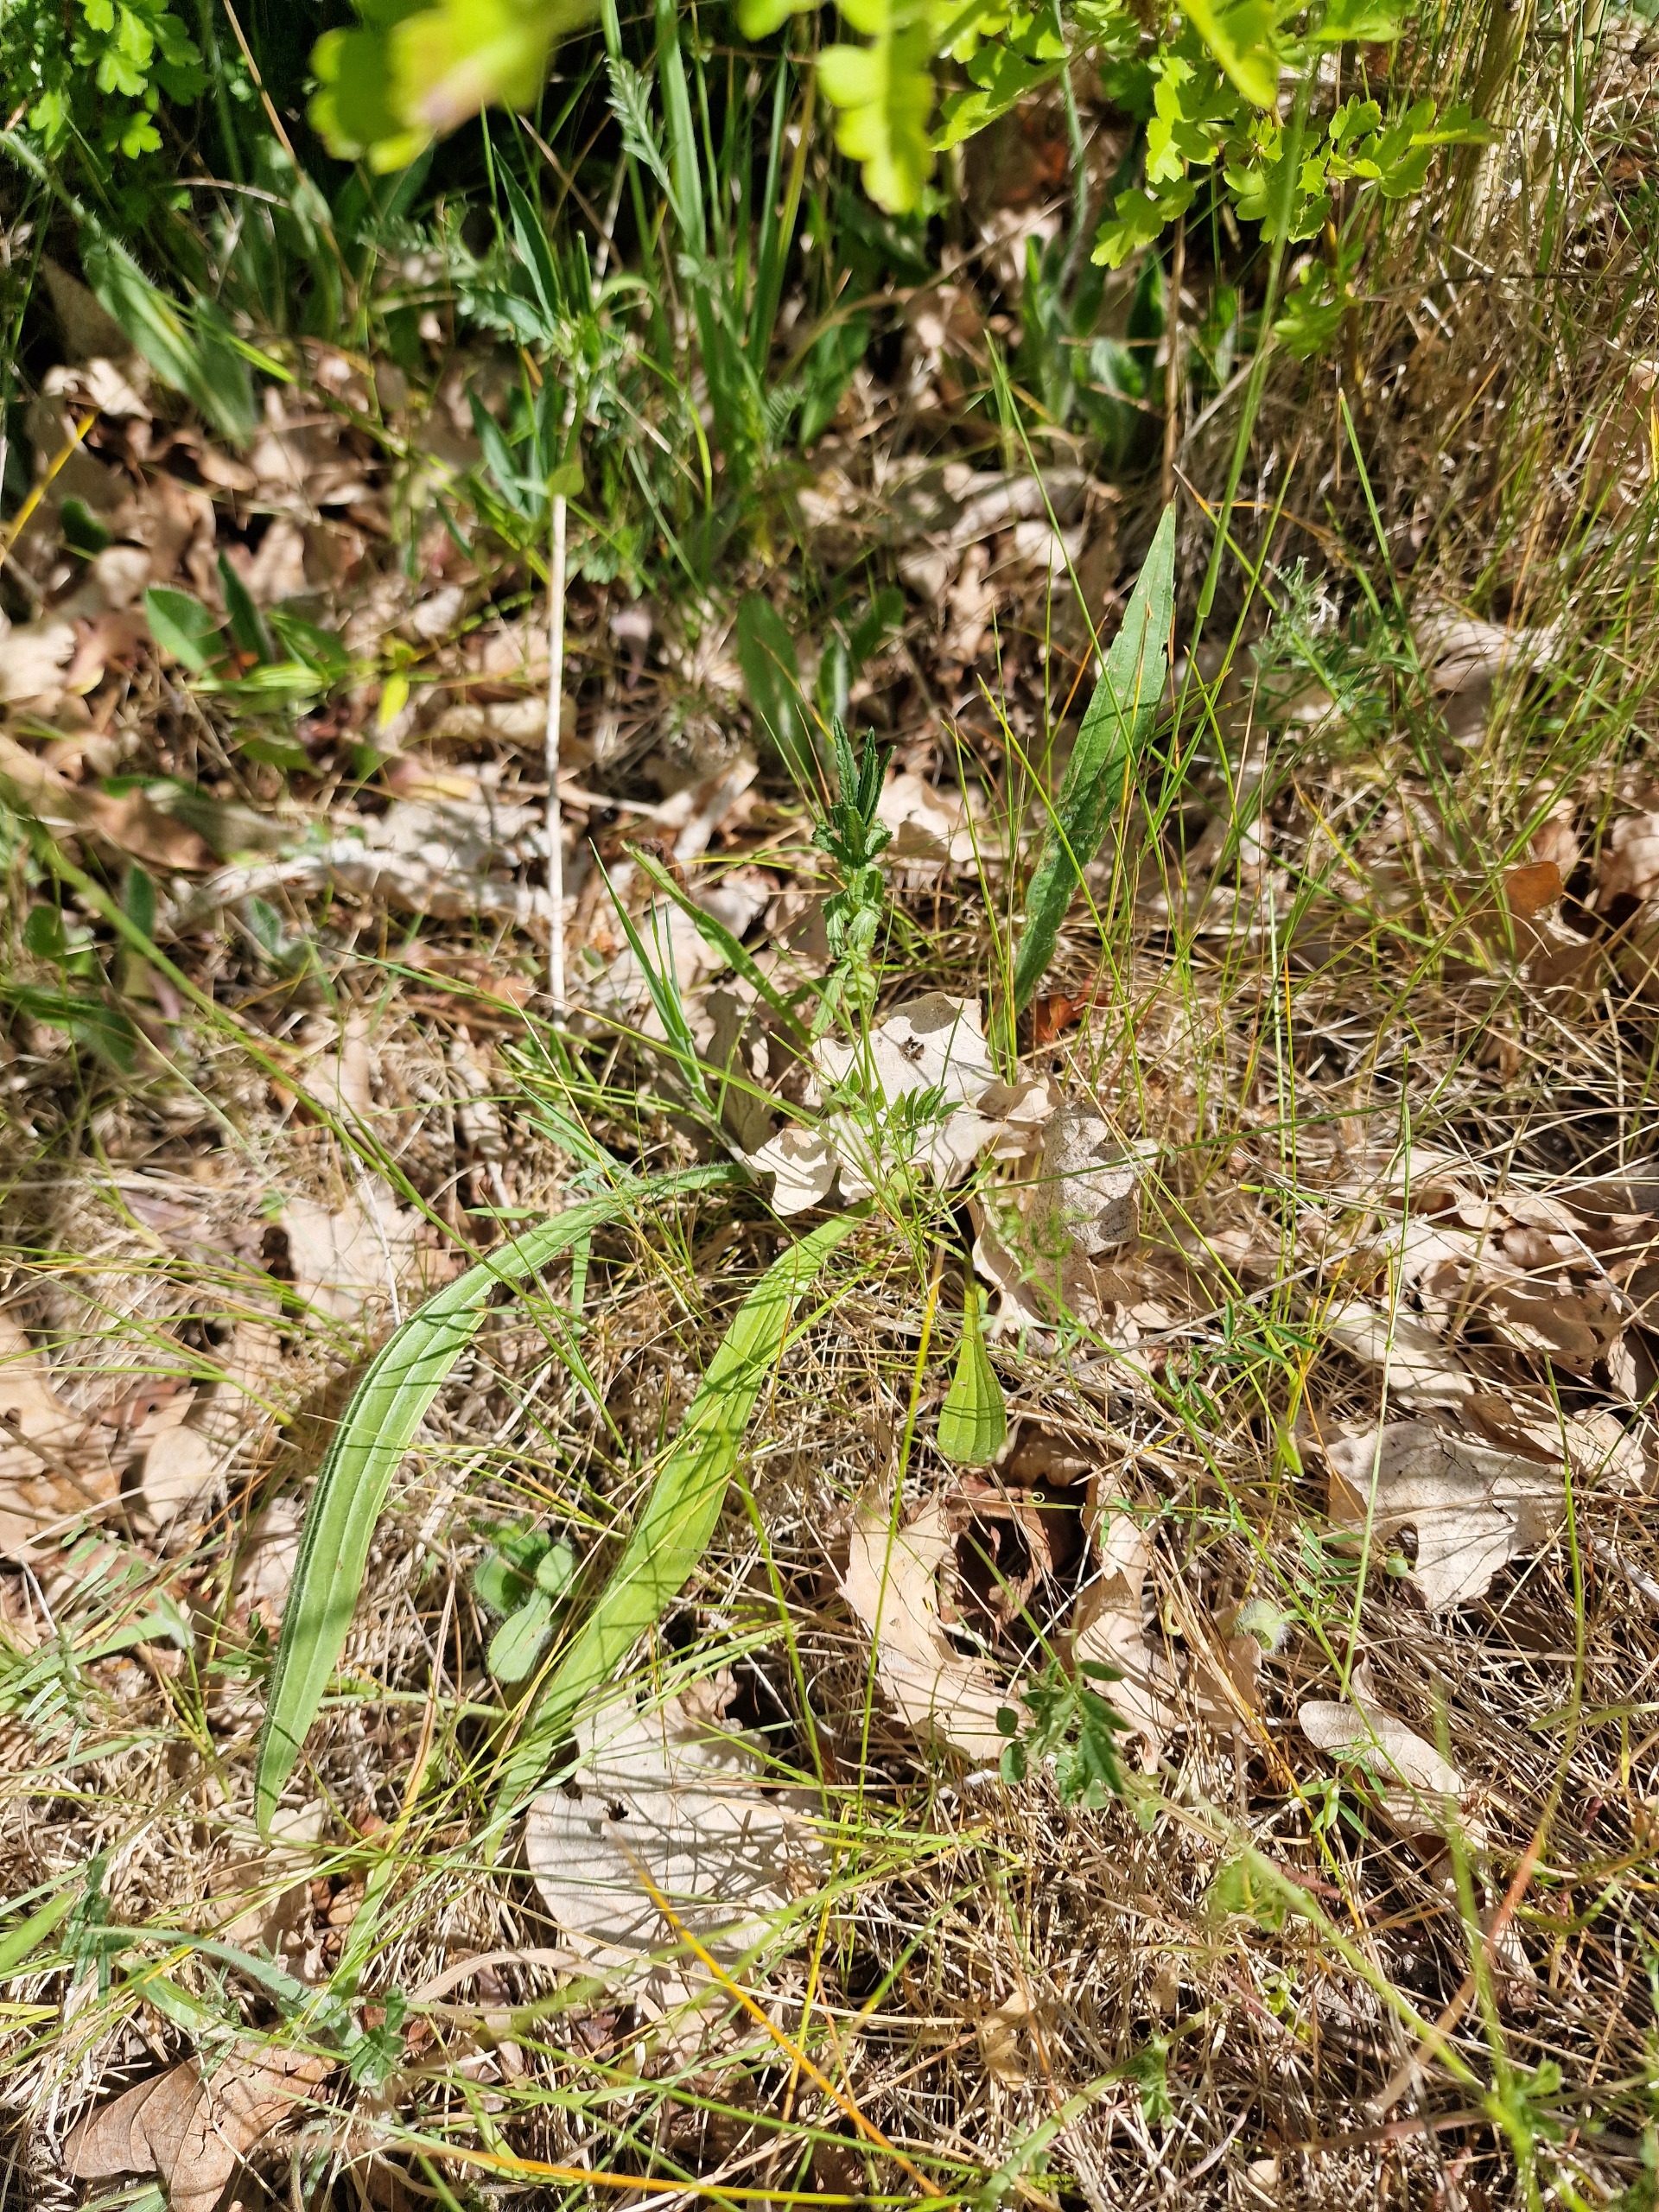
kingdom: Plantae
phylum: Tracheophyta
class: Magnoliopsida
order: Lamiales
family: Plantaginaceae
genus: Plantago
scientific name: Plantago lanceolata
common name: Lancet-vejbred
